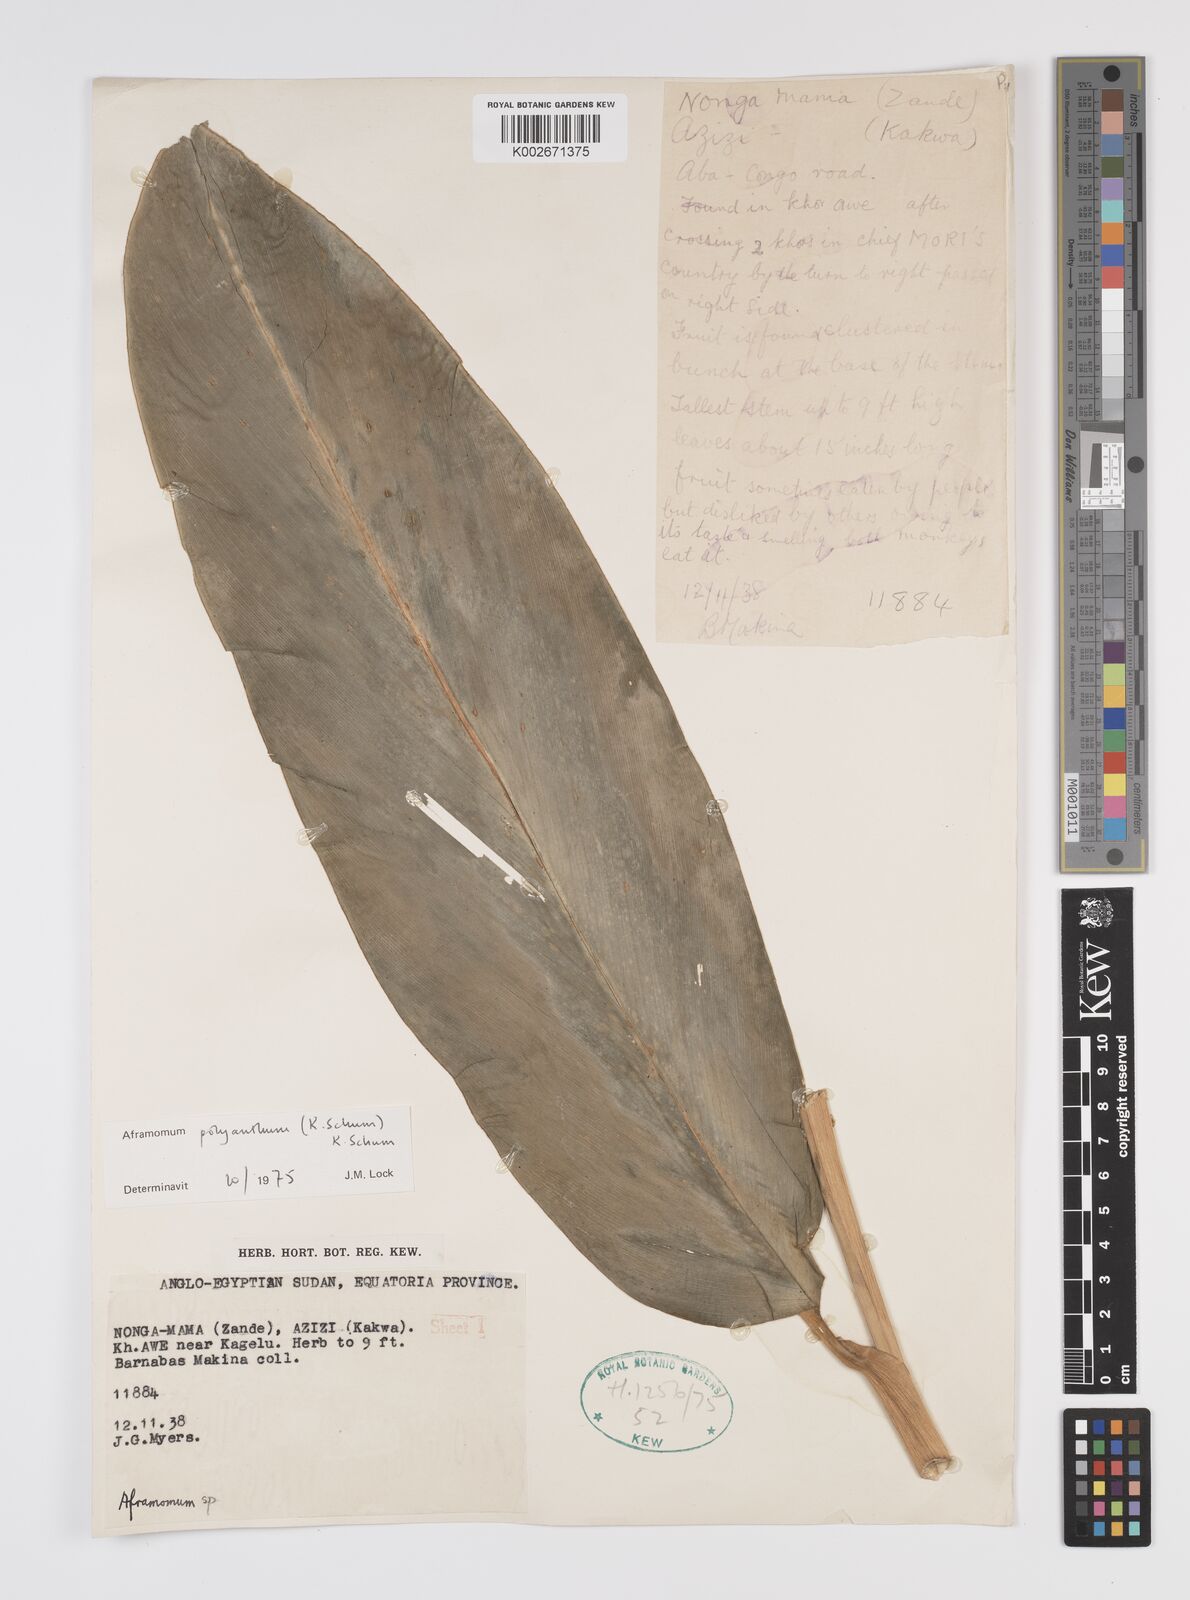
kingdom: Plantae
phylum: Tracheophyta
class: Liliopsida
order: Zingiberales
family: Zingiberaceae
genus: Aframomum
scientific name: Aframomum polyanthum
